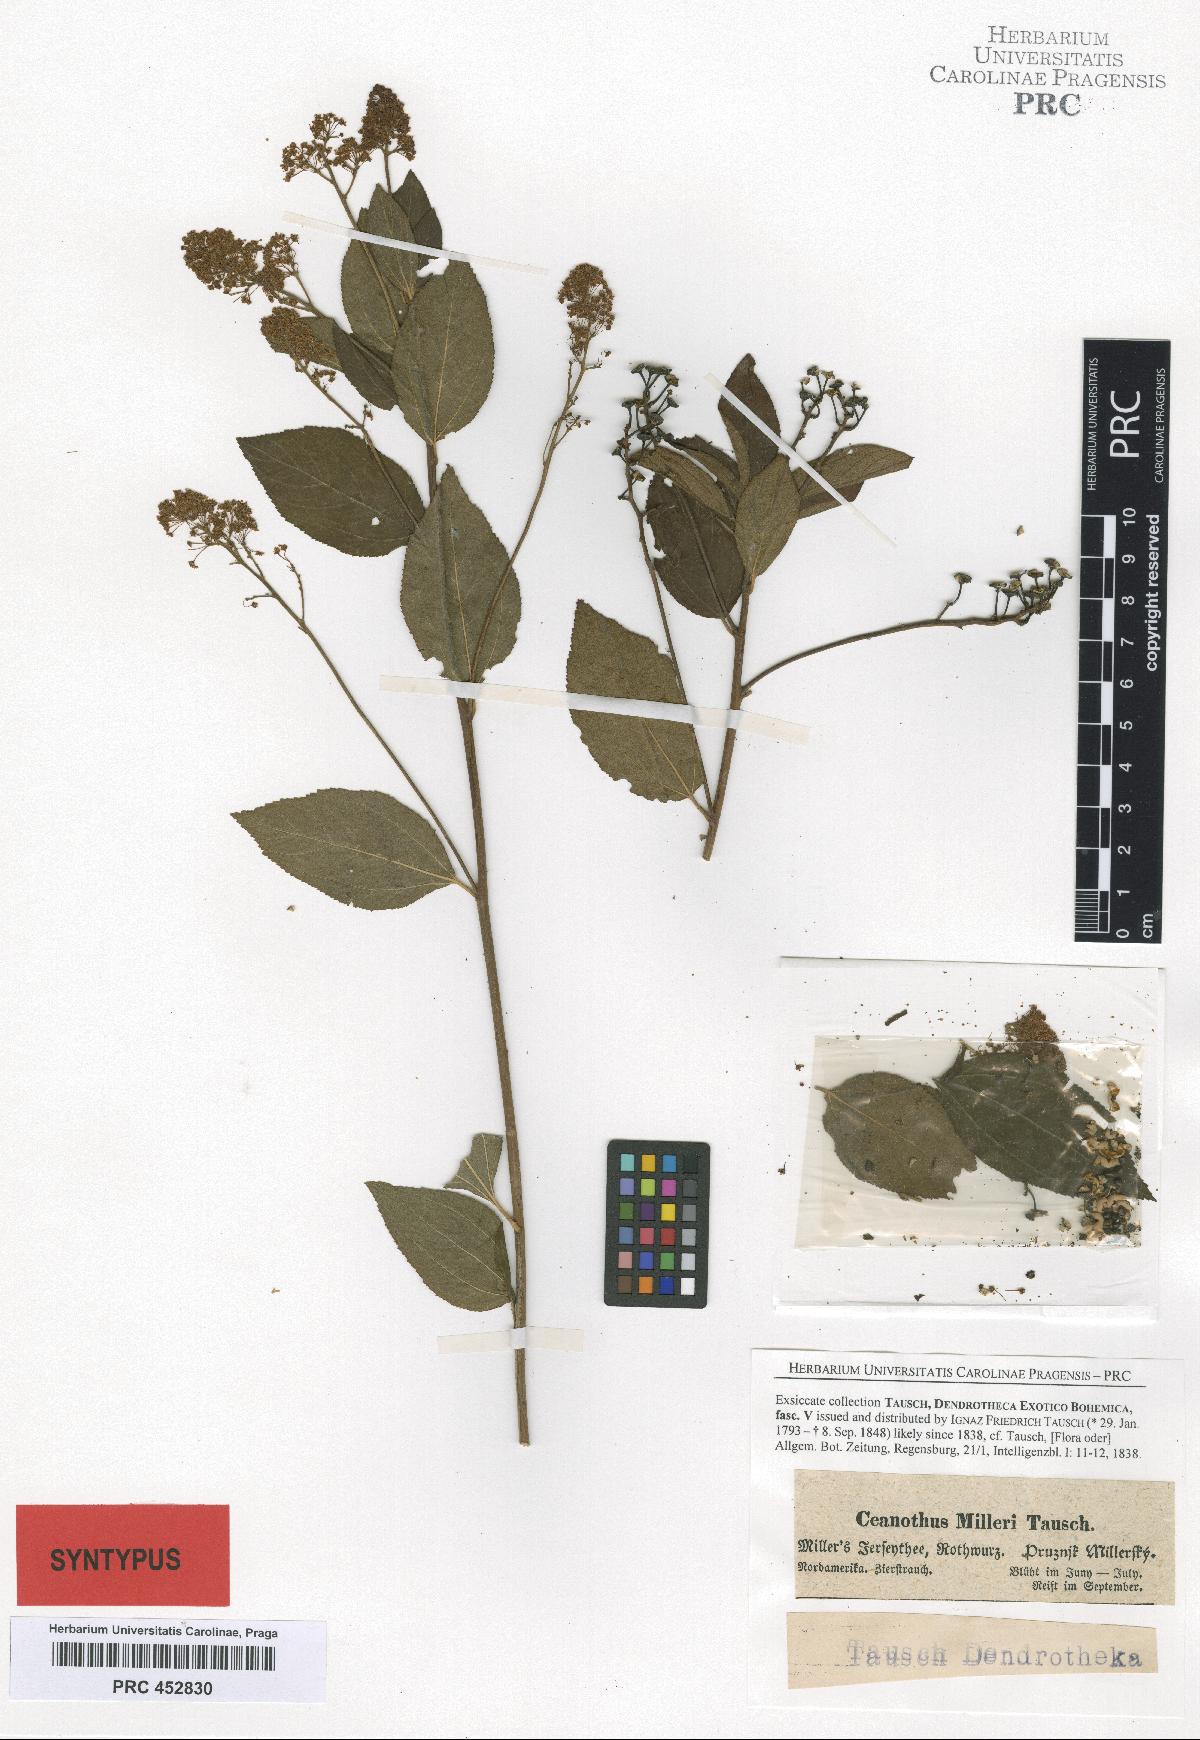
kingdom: Plantae
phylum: Tracheophyta
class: Magnoliopsida
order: Rosales
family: Rhamnaceae
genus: Ceanothus
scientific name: Ceanothus americanus
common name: Redroot
